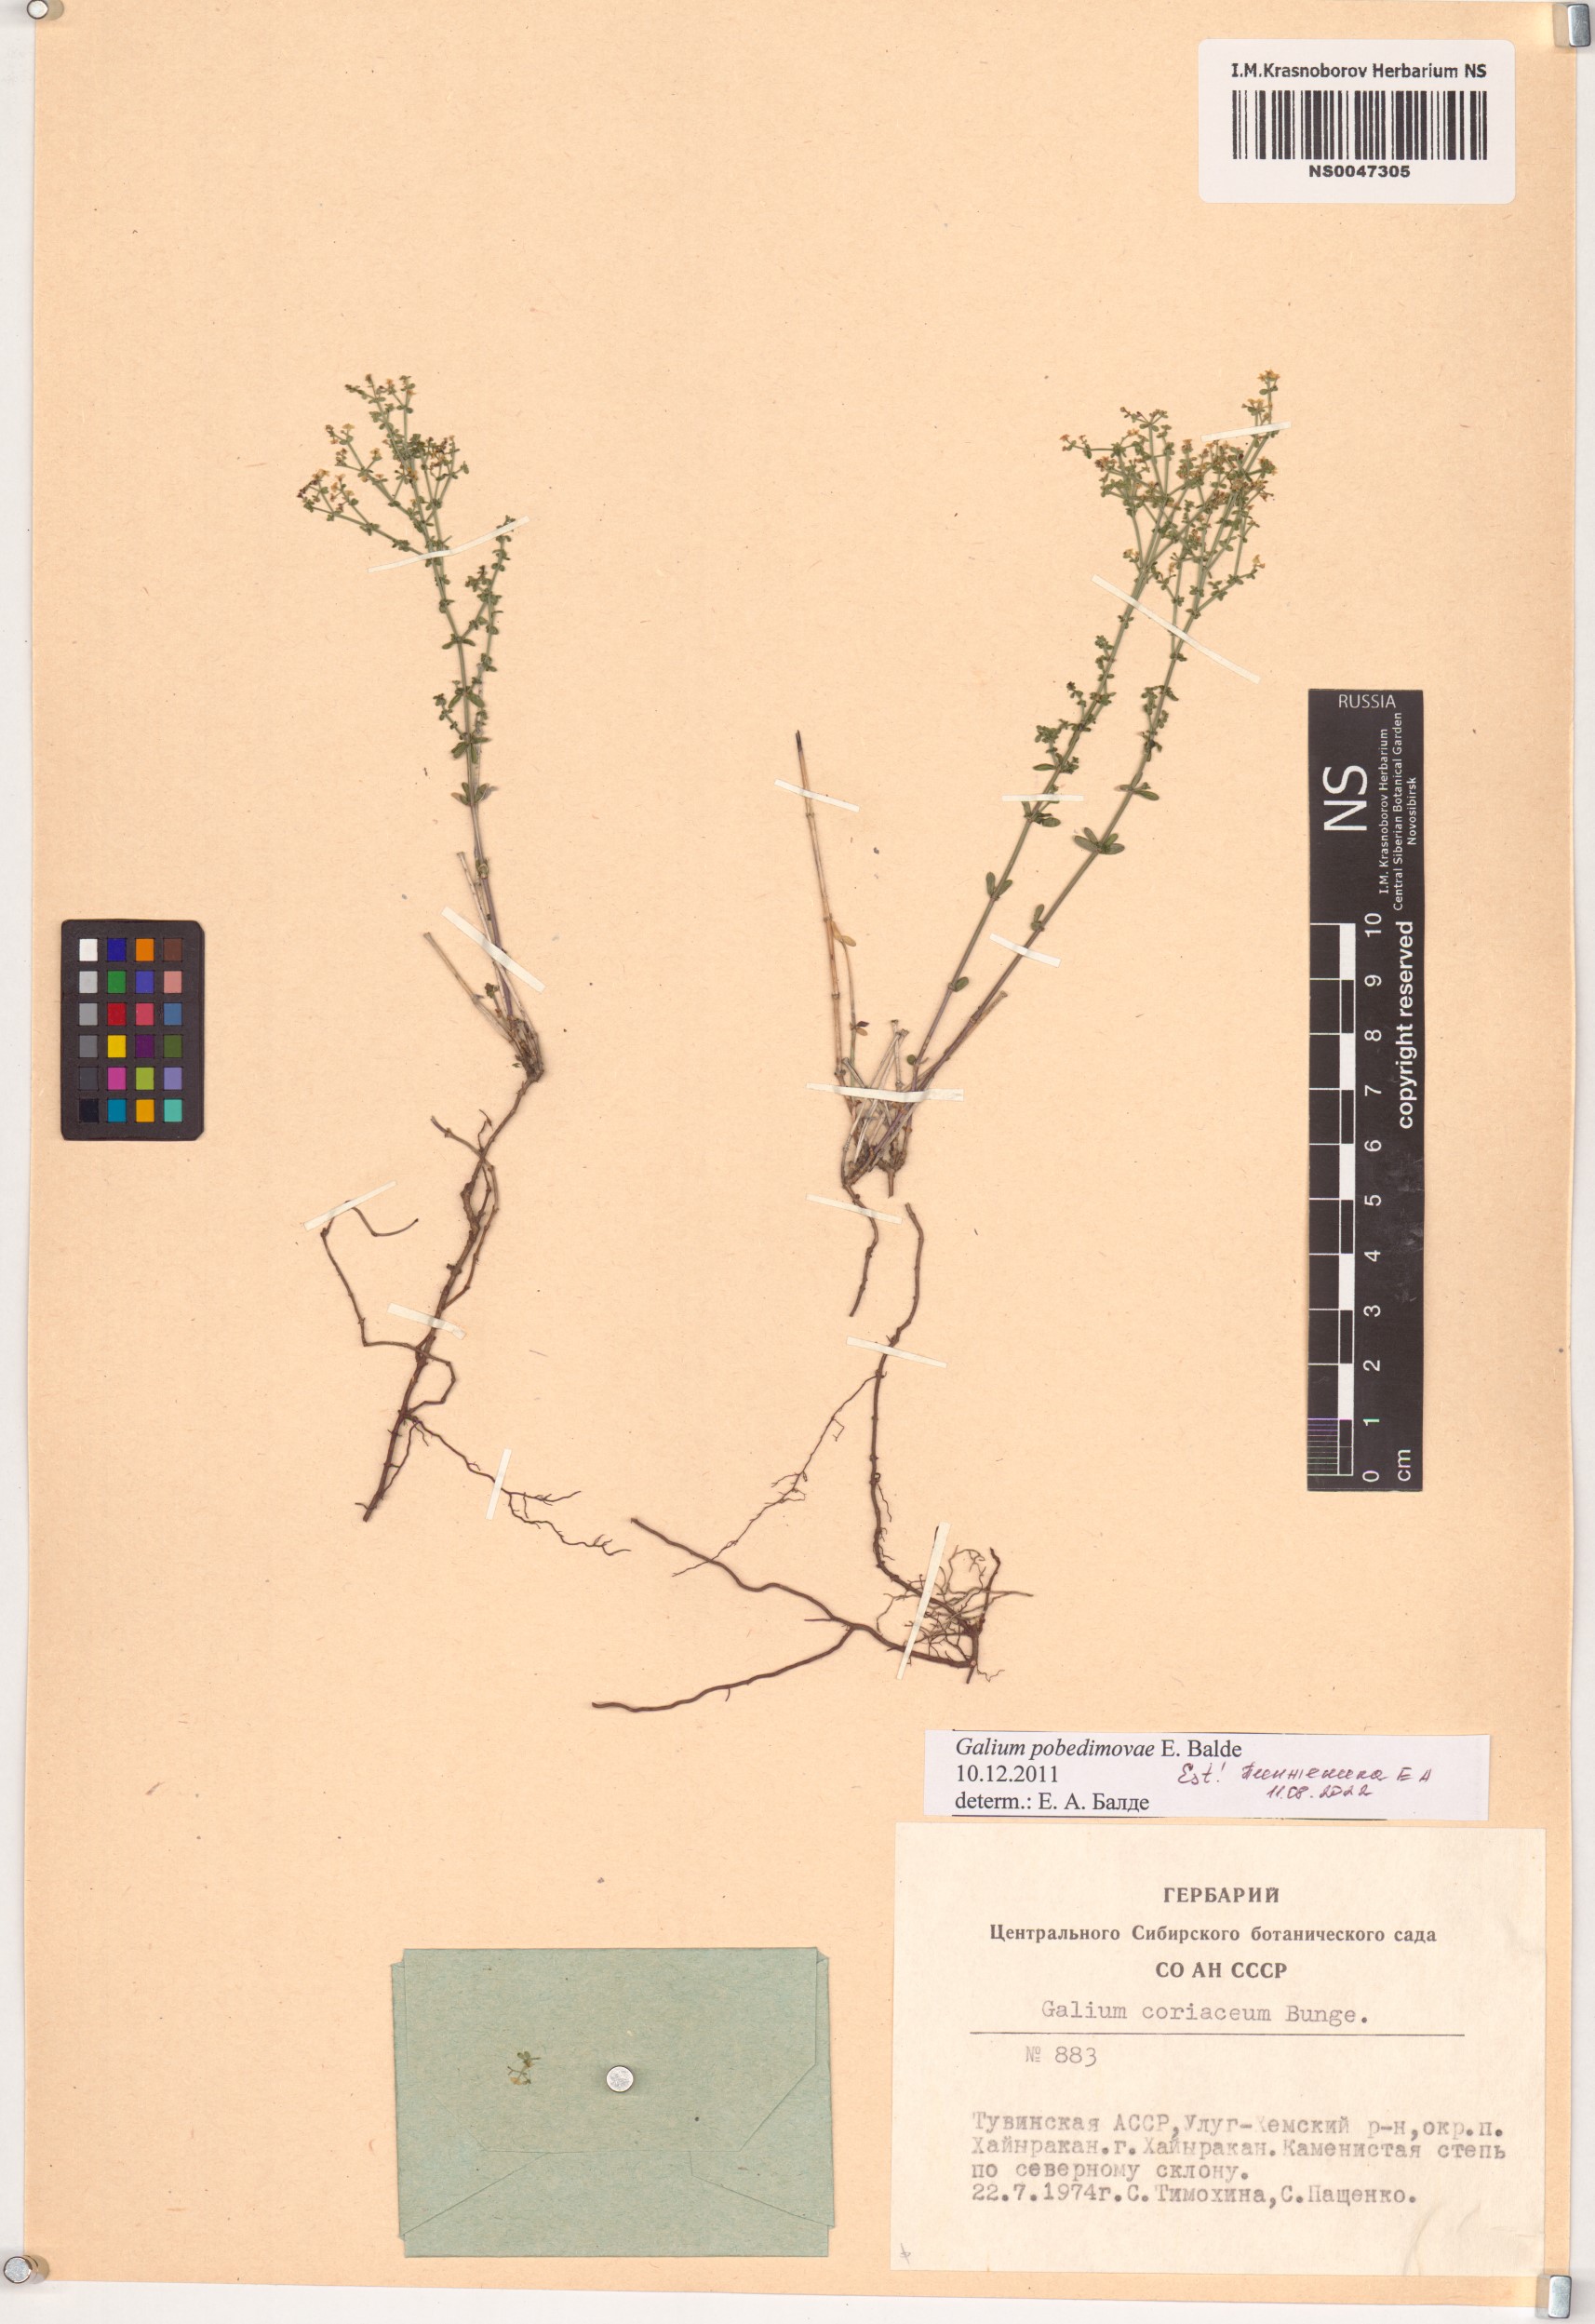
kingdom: Plantae
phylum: Tracheophyta
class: Magnoliopsida
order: Gentianales
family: Rubiaceae
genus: Galium
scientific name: Galium pobedimovae
